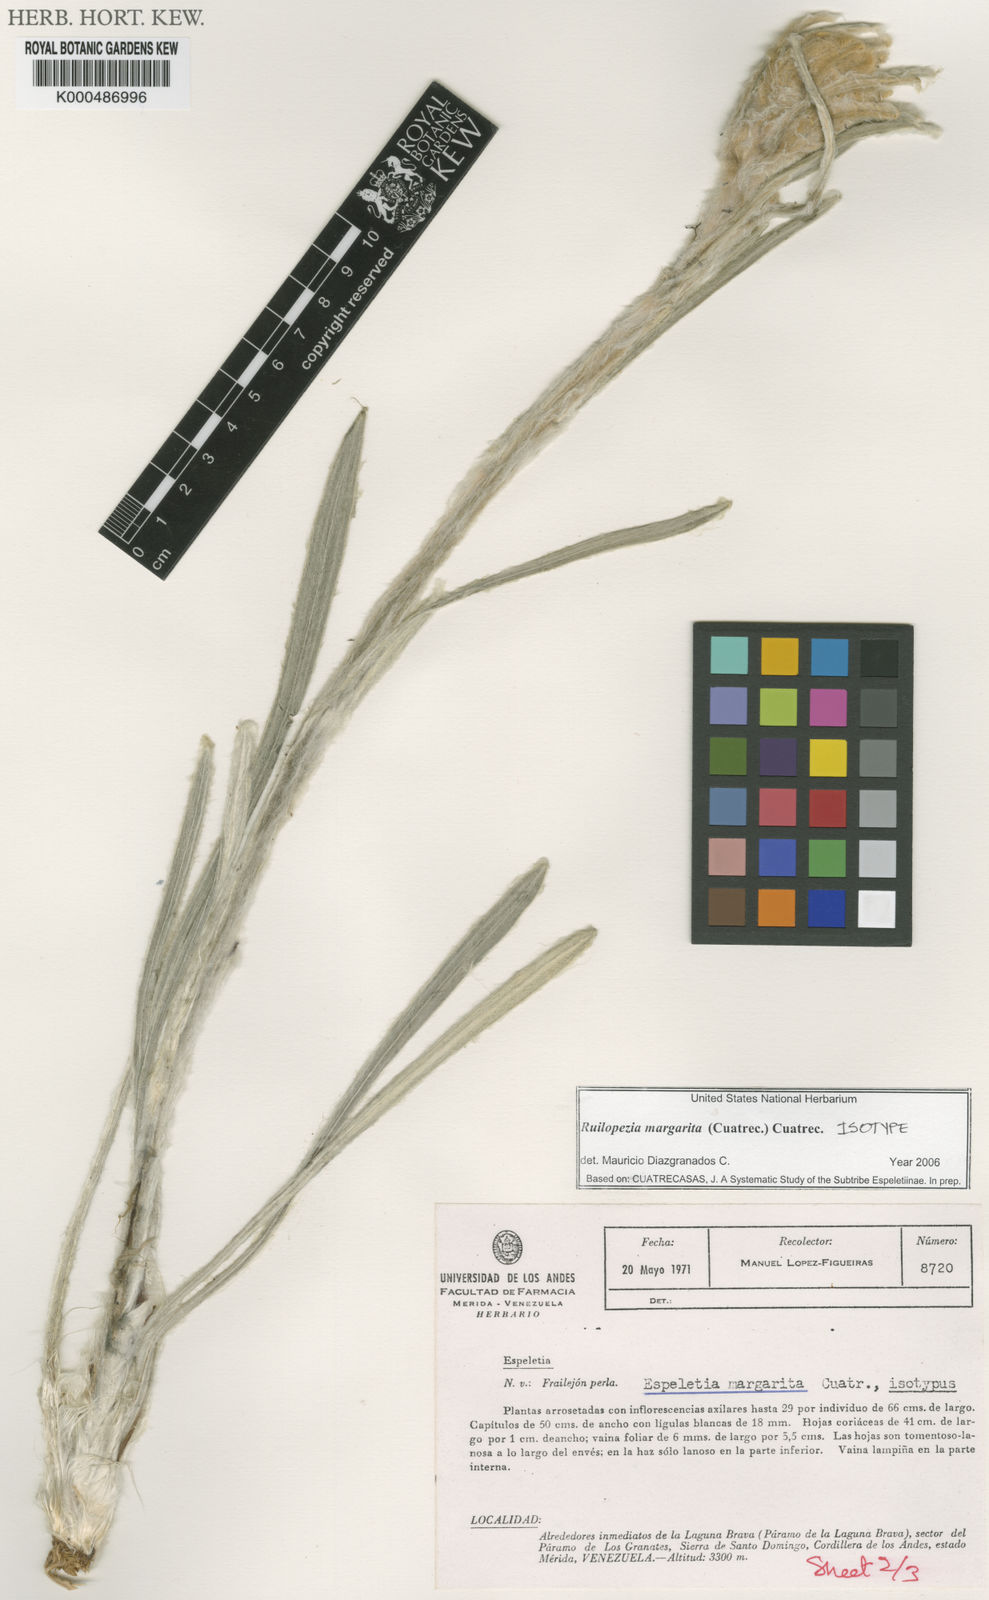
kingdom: Plantae
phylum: Tracheophyta
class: Magnoliopsida
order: Asterales
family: Asteraceae
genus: Espeletia
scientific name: Espeletia margarita
